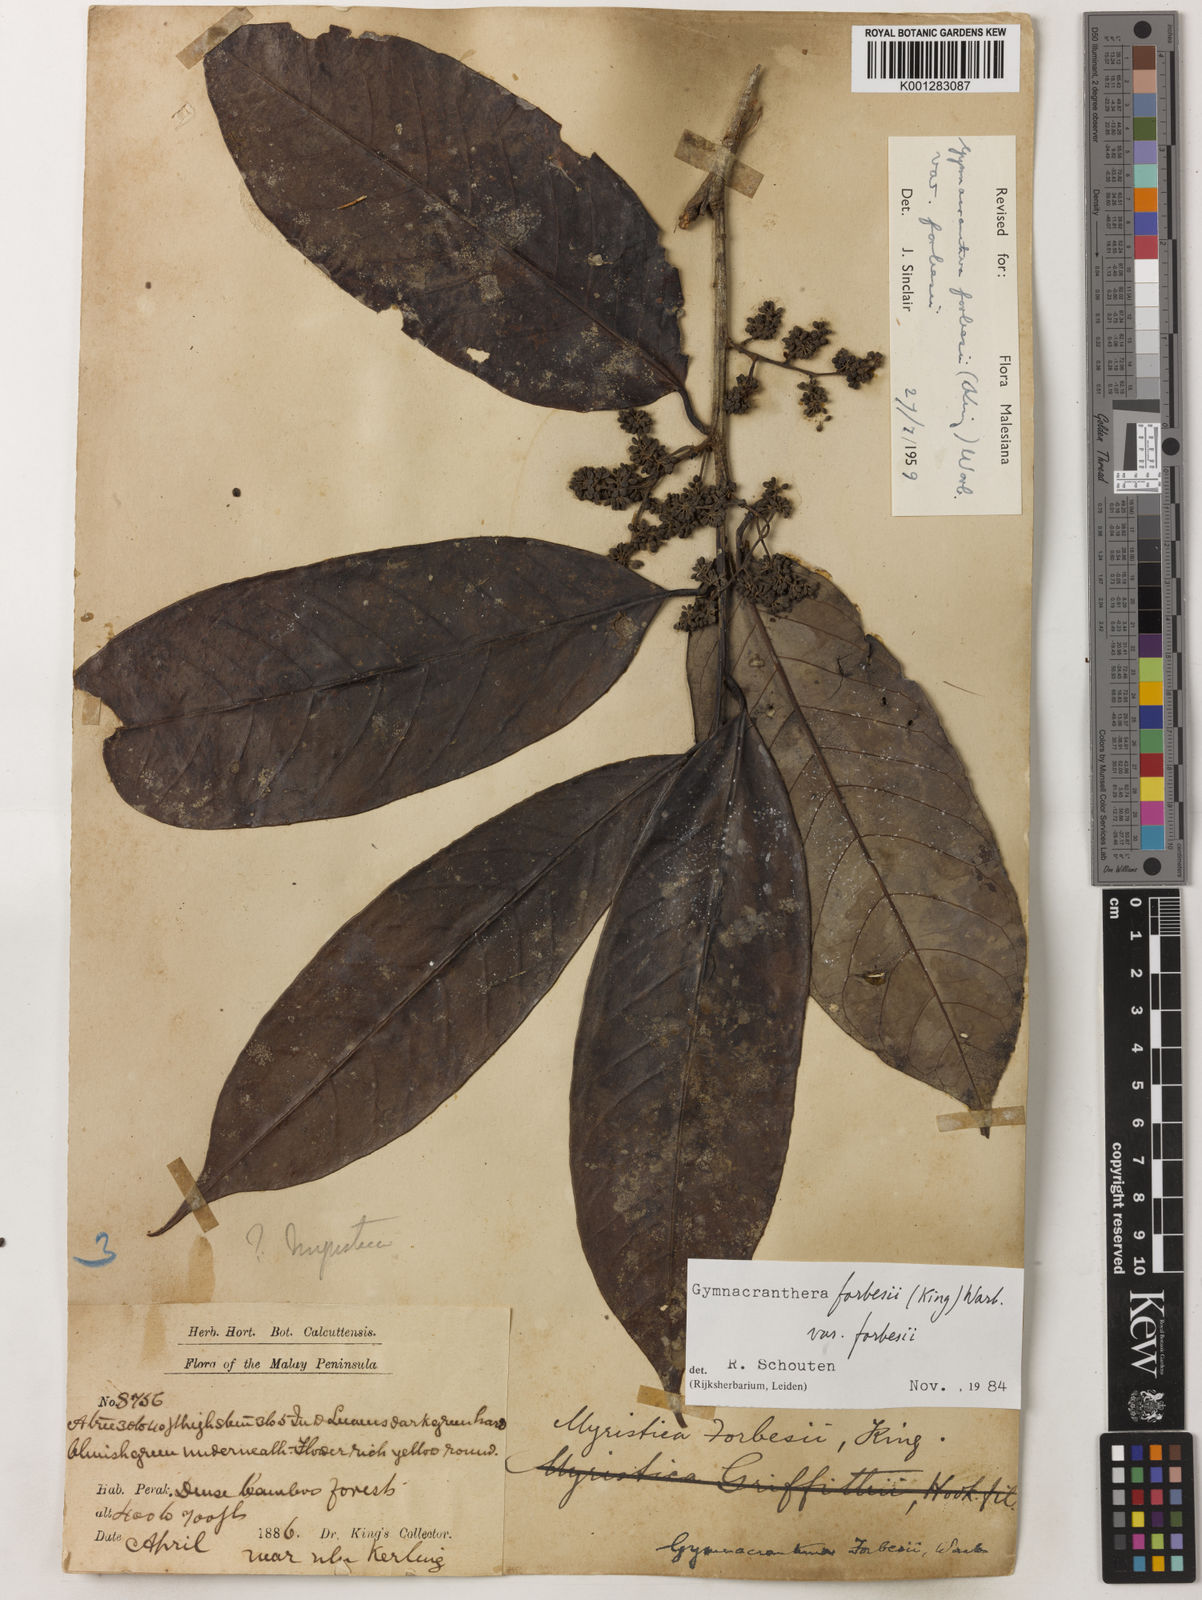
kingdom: Plantae
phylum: Tracheophyta
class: Magnoliopsida
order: Magnoliales
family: Myristicaceae
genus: Gymnacranthera
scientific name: Gymnacranthera forbesii
